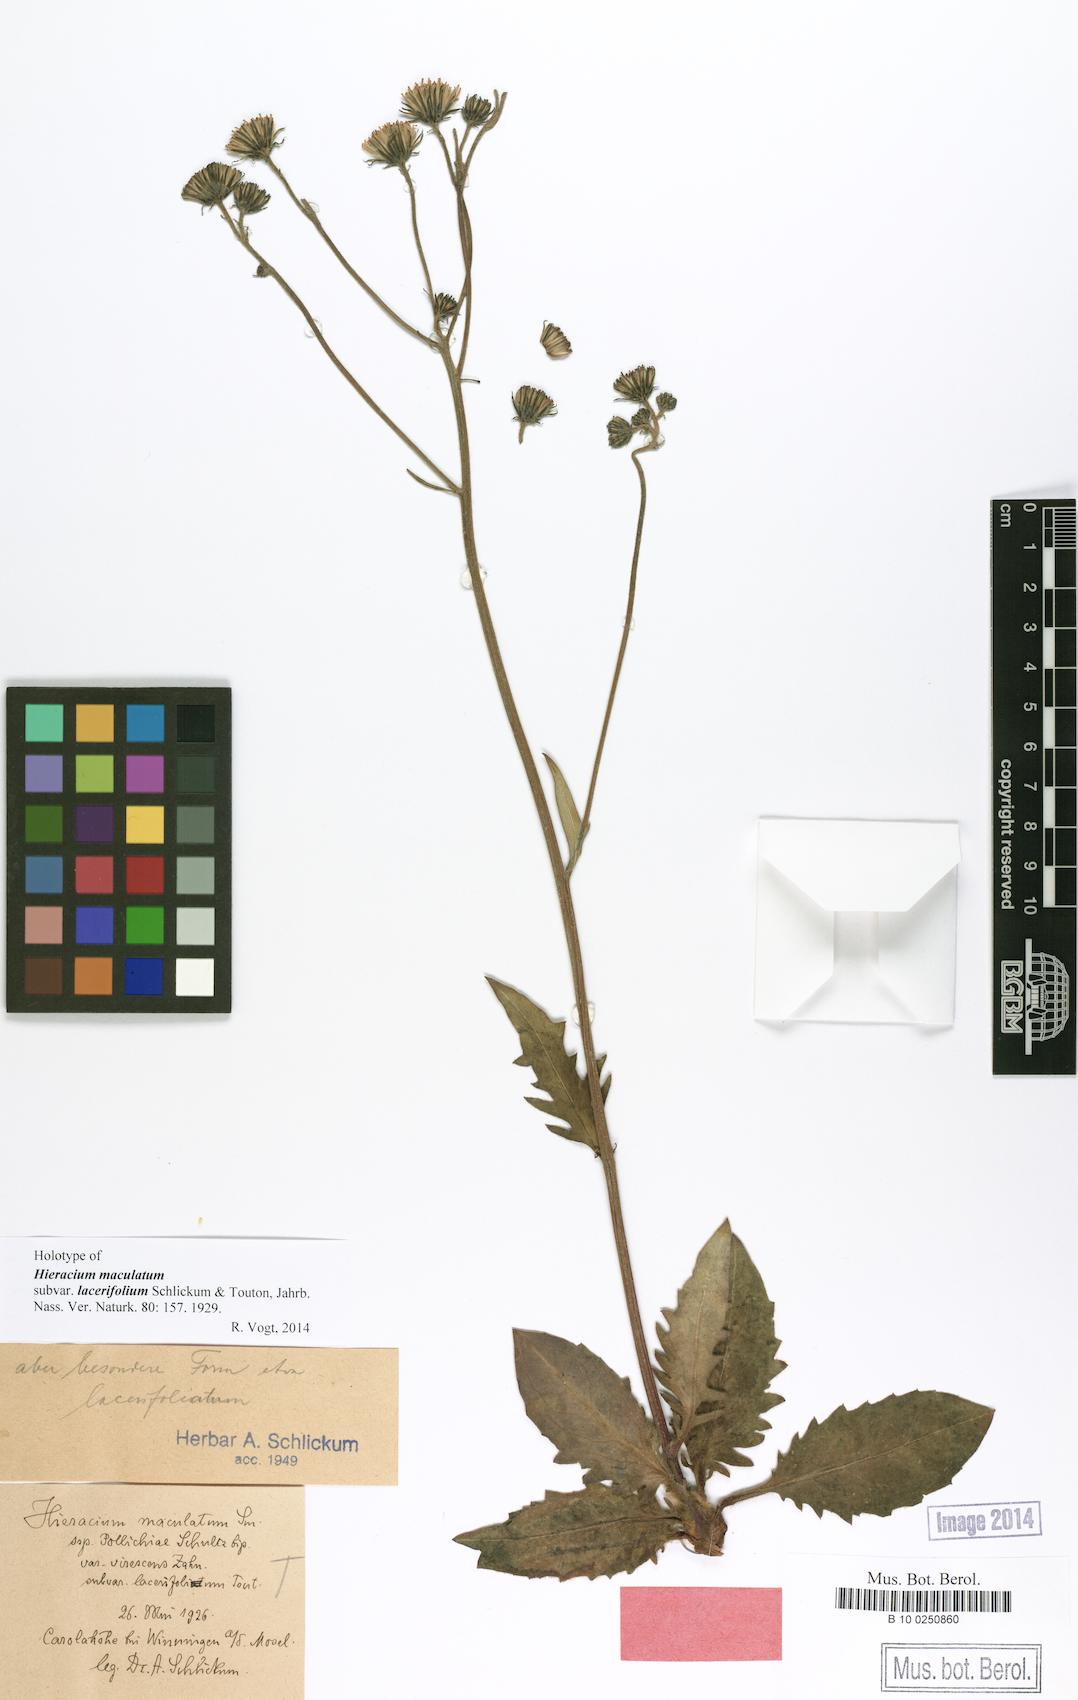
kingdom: Plantae
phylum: Tracheophyta
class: Magnoliopsida
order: Asterales
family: Asteraceae
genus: Hieracium
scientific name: Hieracium maculatum
